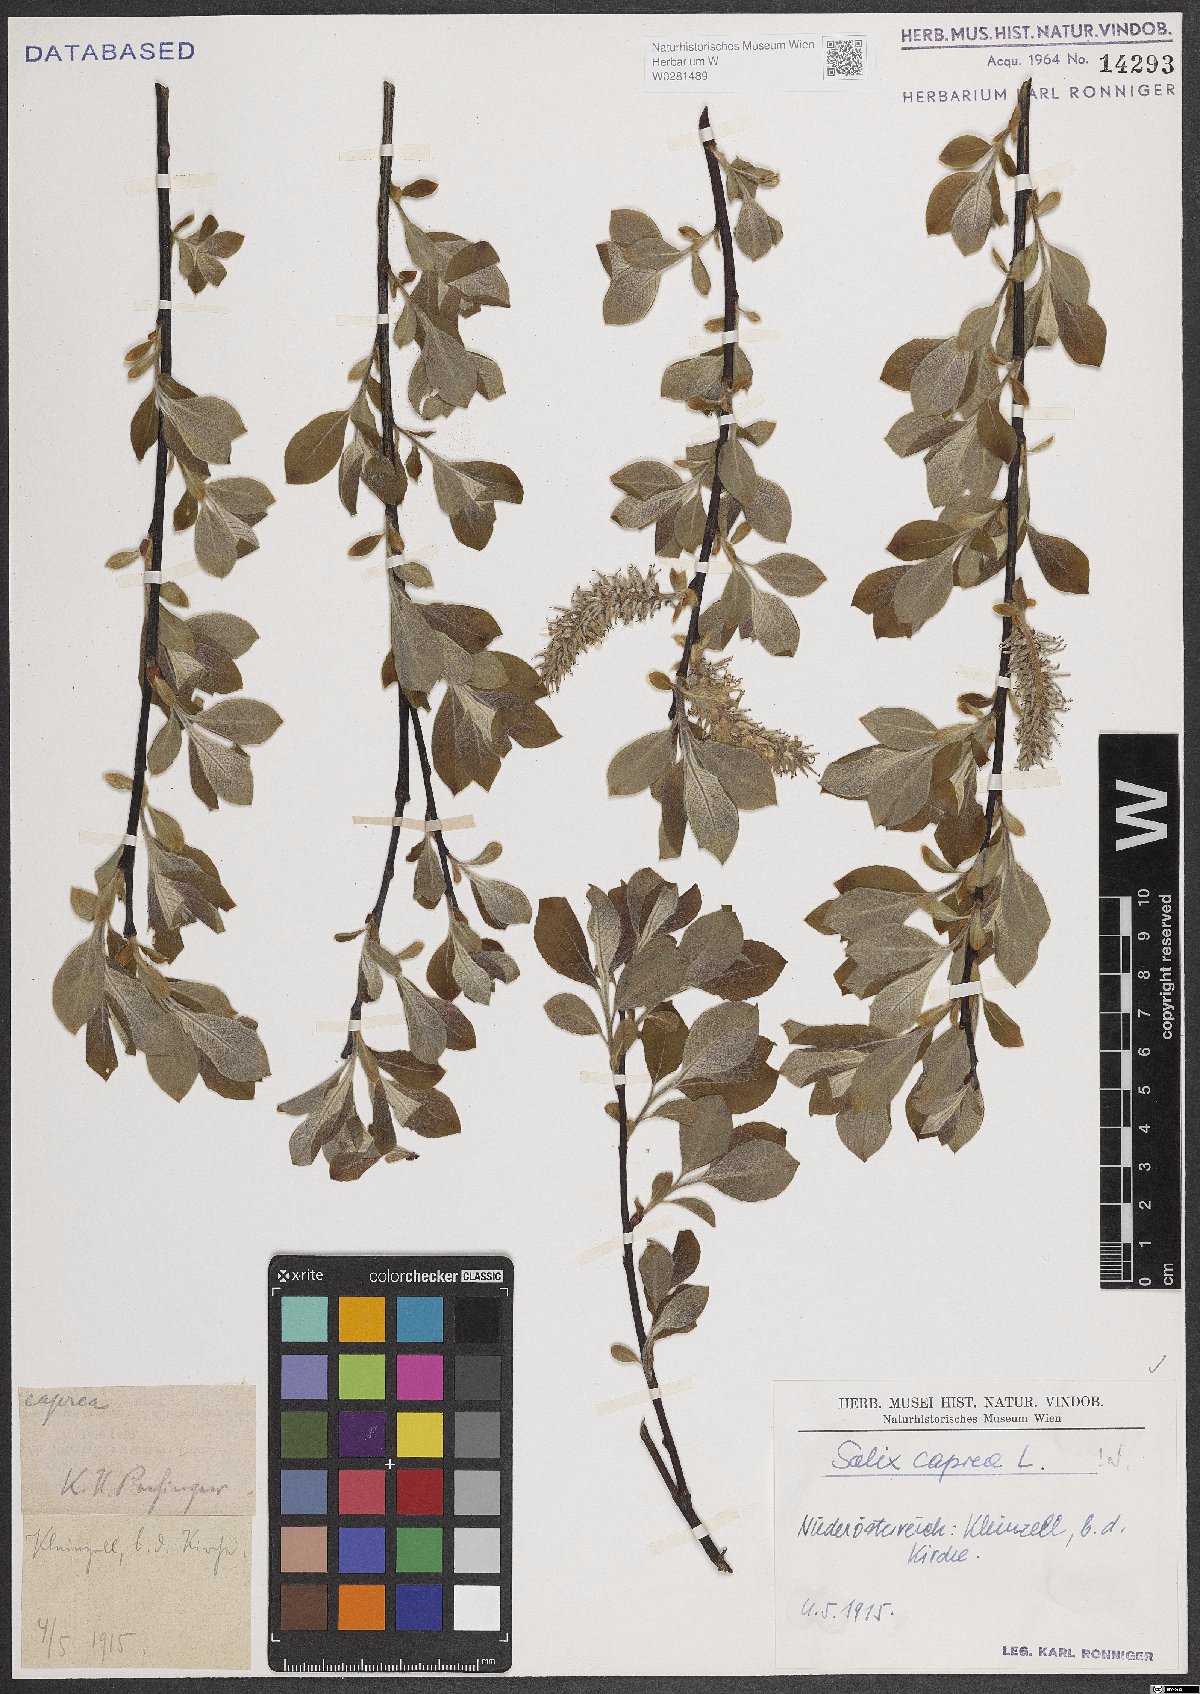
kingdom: Plantae
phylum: Tracheophyta
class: Magnoliopsida
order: Malpighiales
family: Salicaceae
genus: Salix
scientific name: Salix caprea
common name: Goat willow
